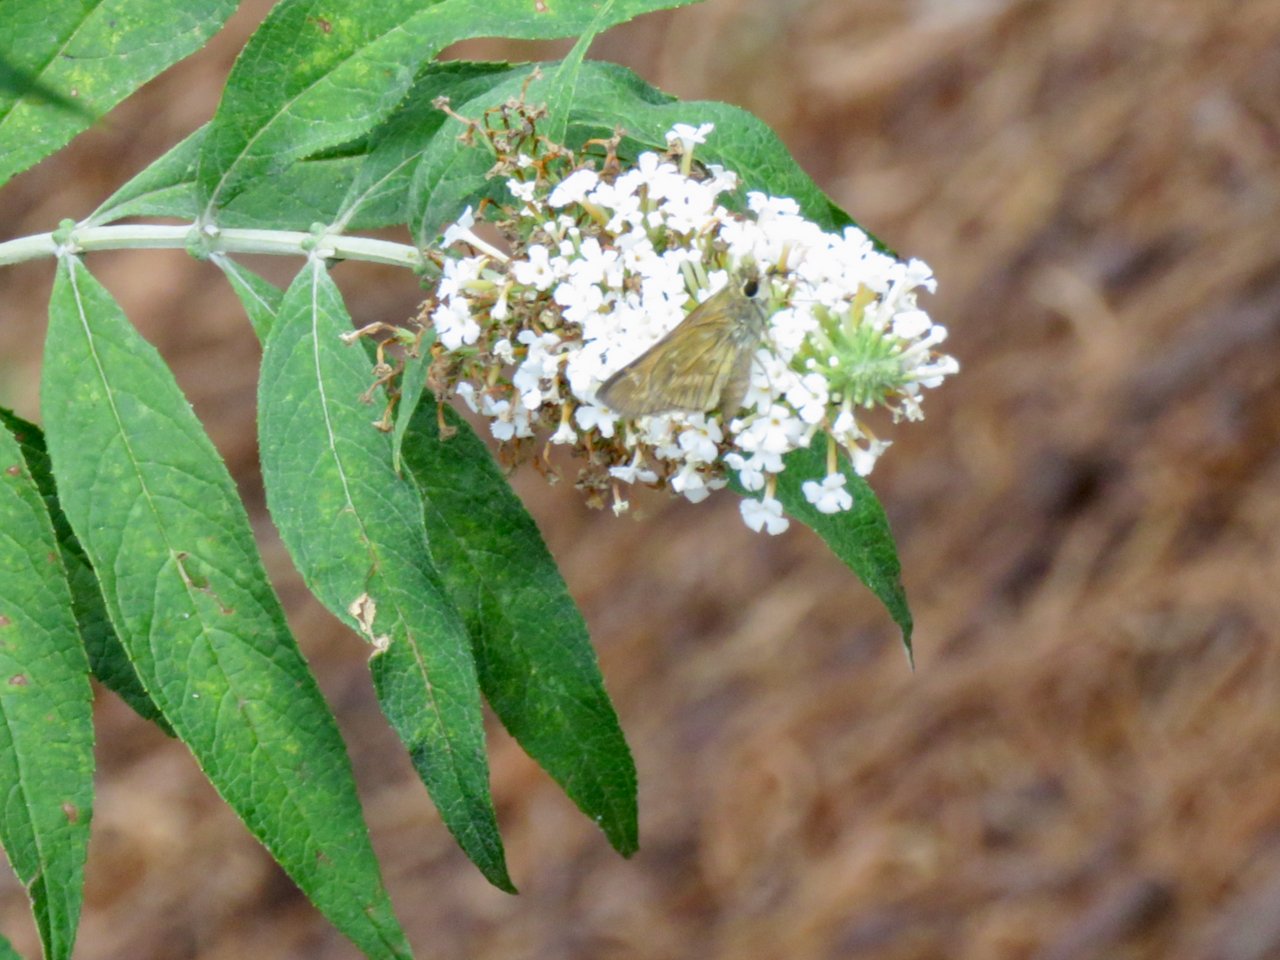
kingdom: Animalia
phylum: Arthropoda
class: Insecta
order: Lepidoptera
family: Hesperiidae
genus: Atalopedes
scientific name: Atalopedes campestris
